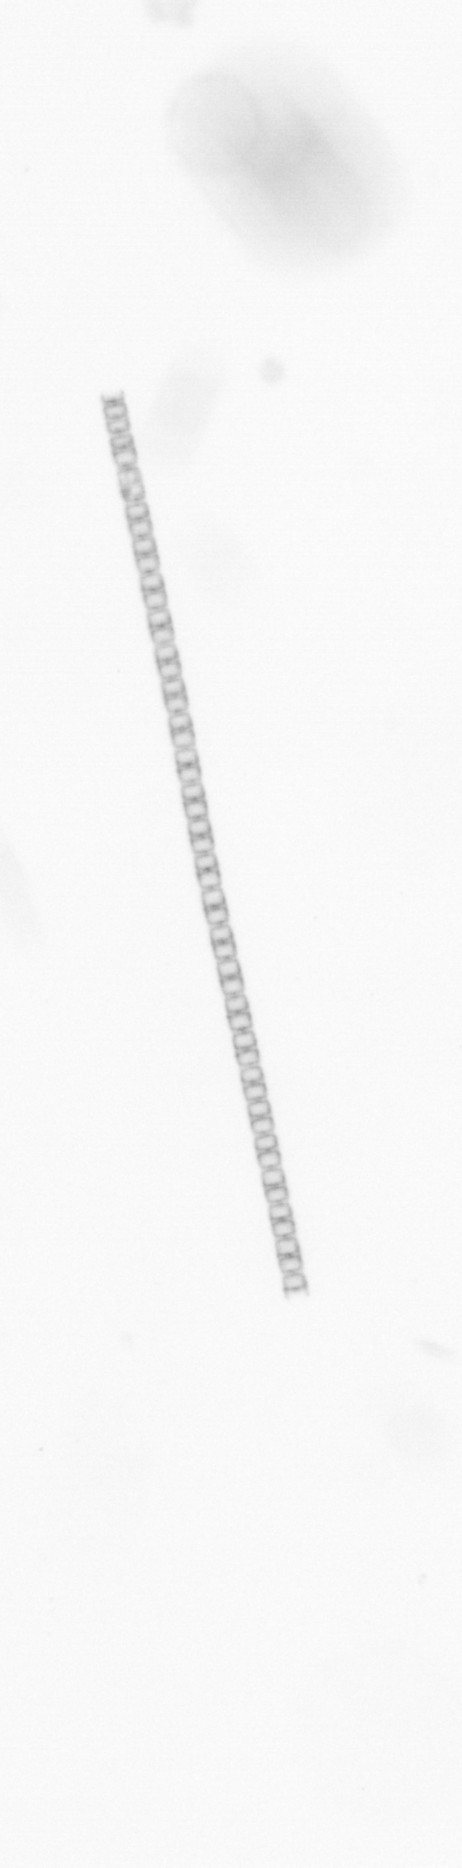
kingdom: Chromista
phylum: Ochrophyta
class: Bacillariophyceae
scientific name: Bacillariophyceae
